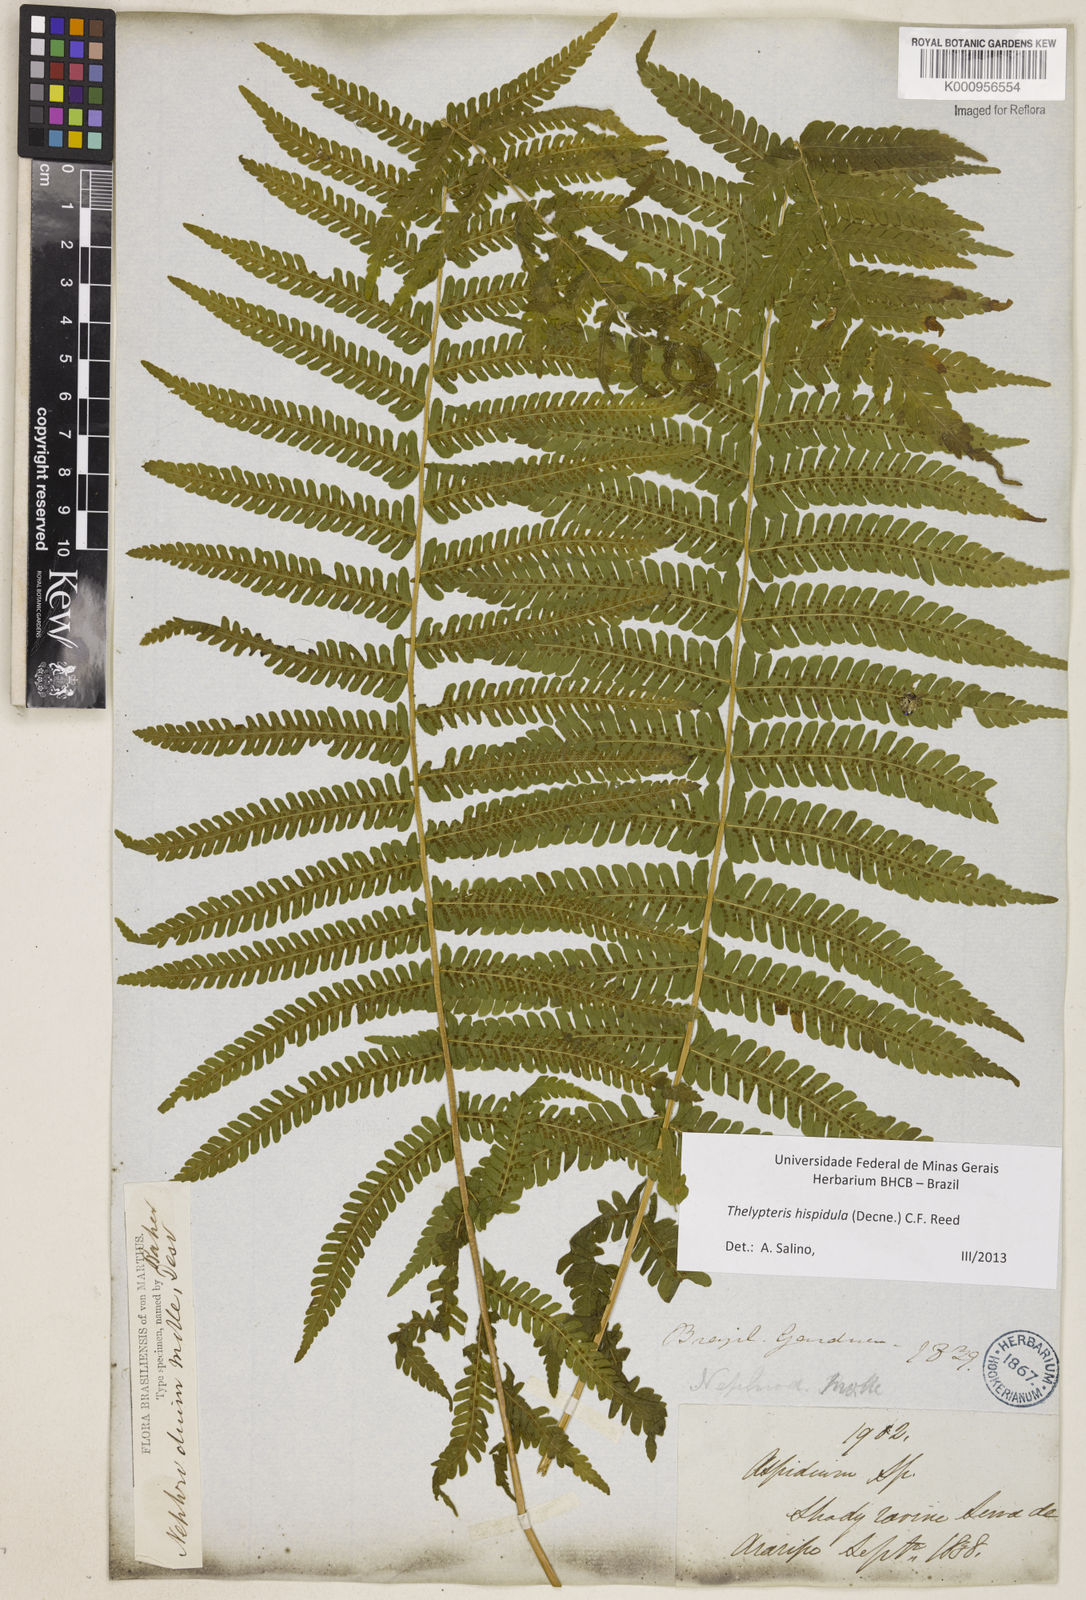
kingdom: Plantae
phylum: Tracheophyta
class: Polypodiopsida
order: Polypodiales
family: Thelypteridaceae
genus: Christella
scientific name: Christella hispidula
